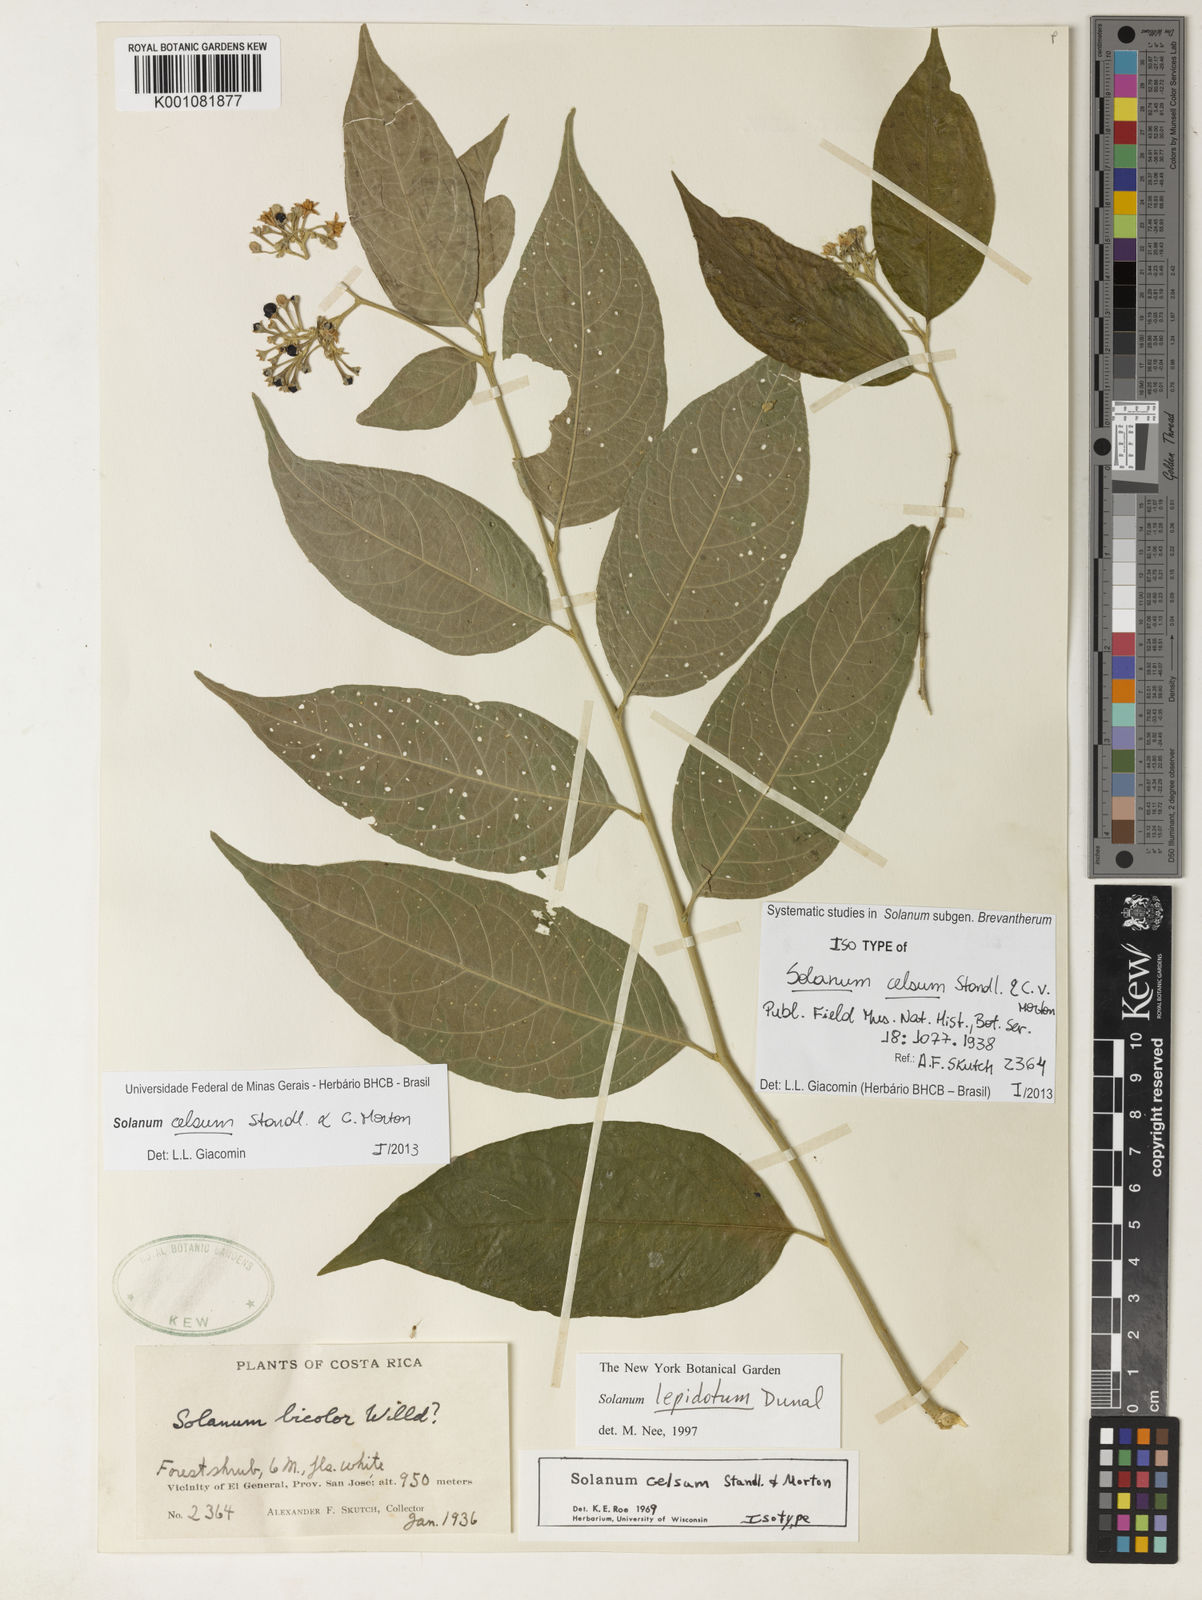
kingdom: Plantae
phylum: Tracheophyta
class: Magnoliopsida
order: Solanales
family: Solanaceae
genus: Solanum
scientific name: Solanum celsum
